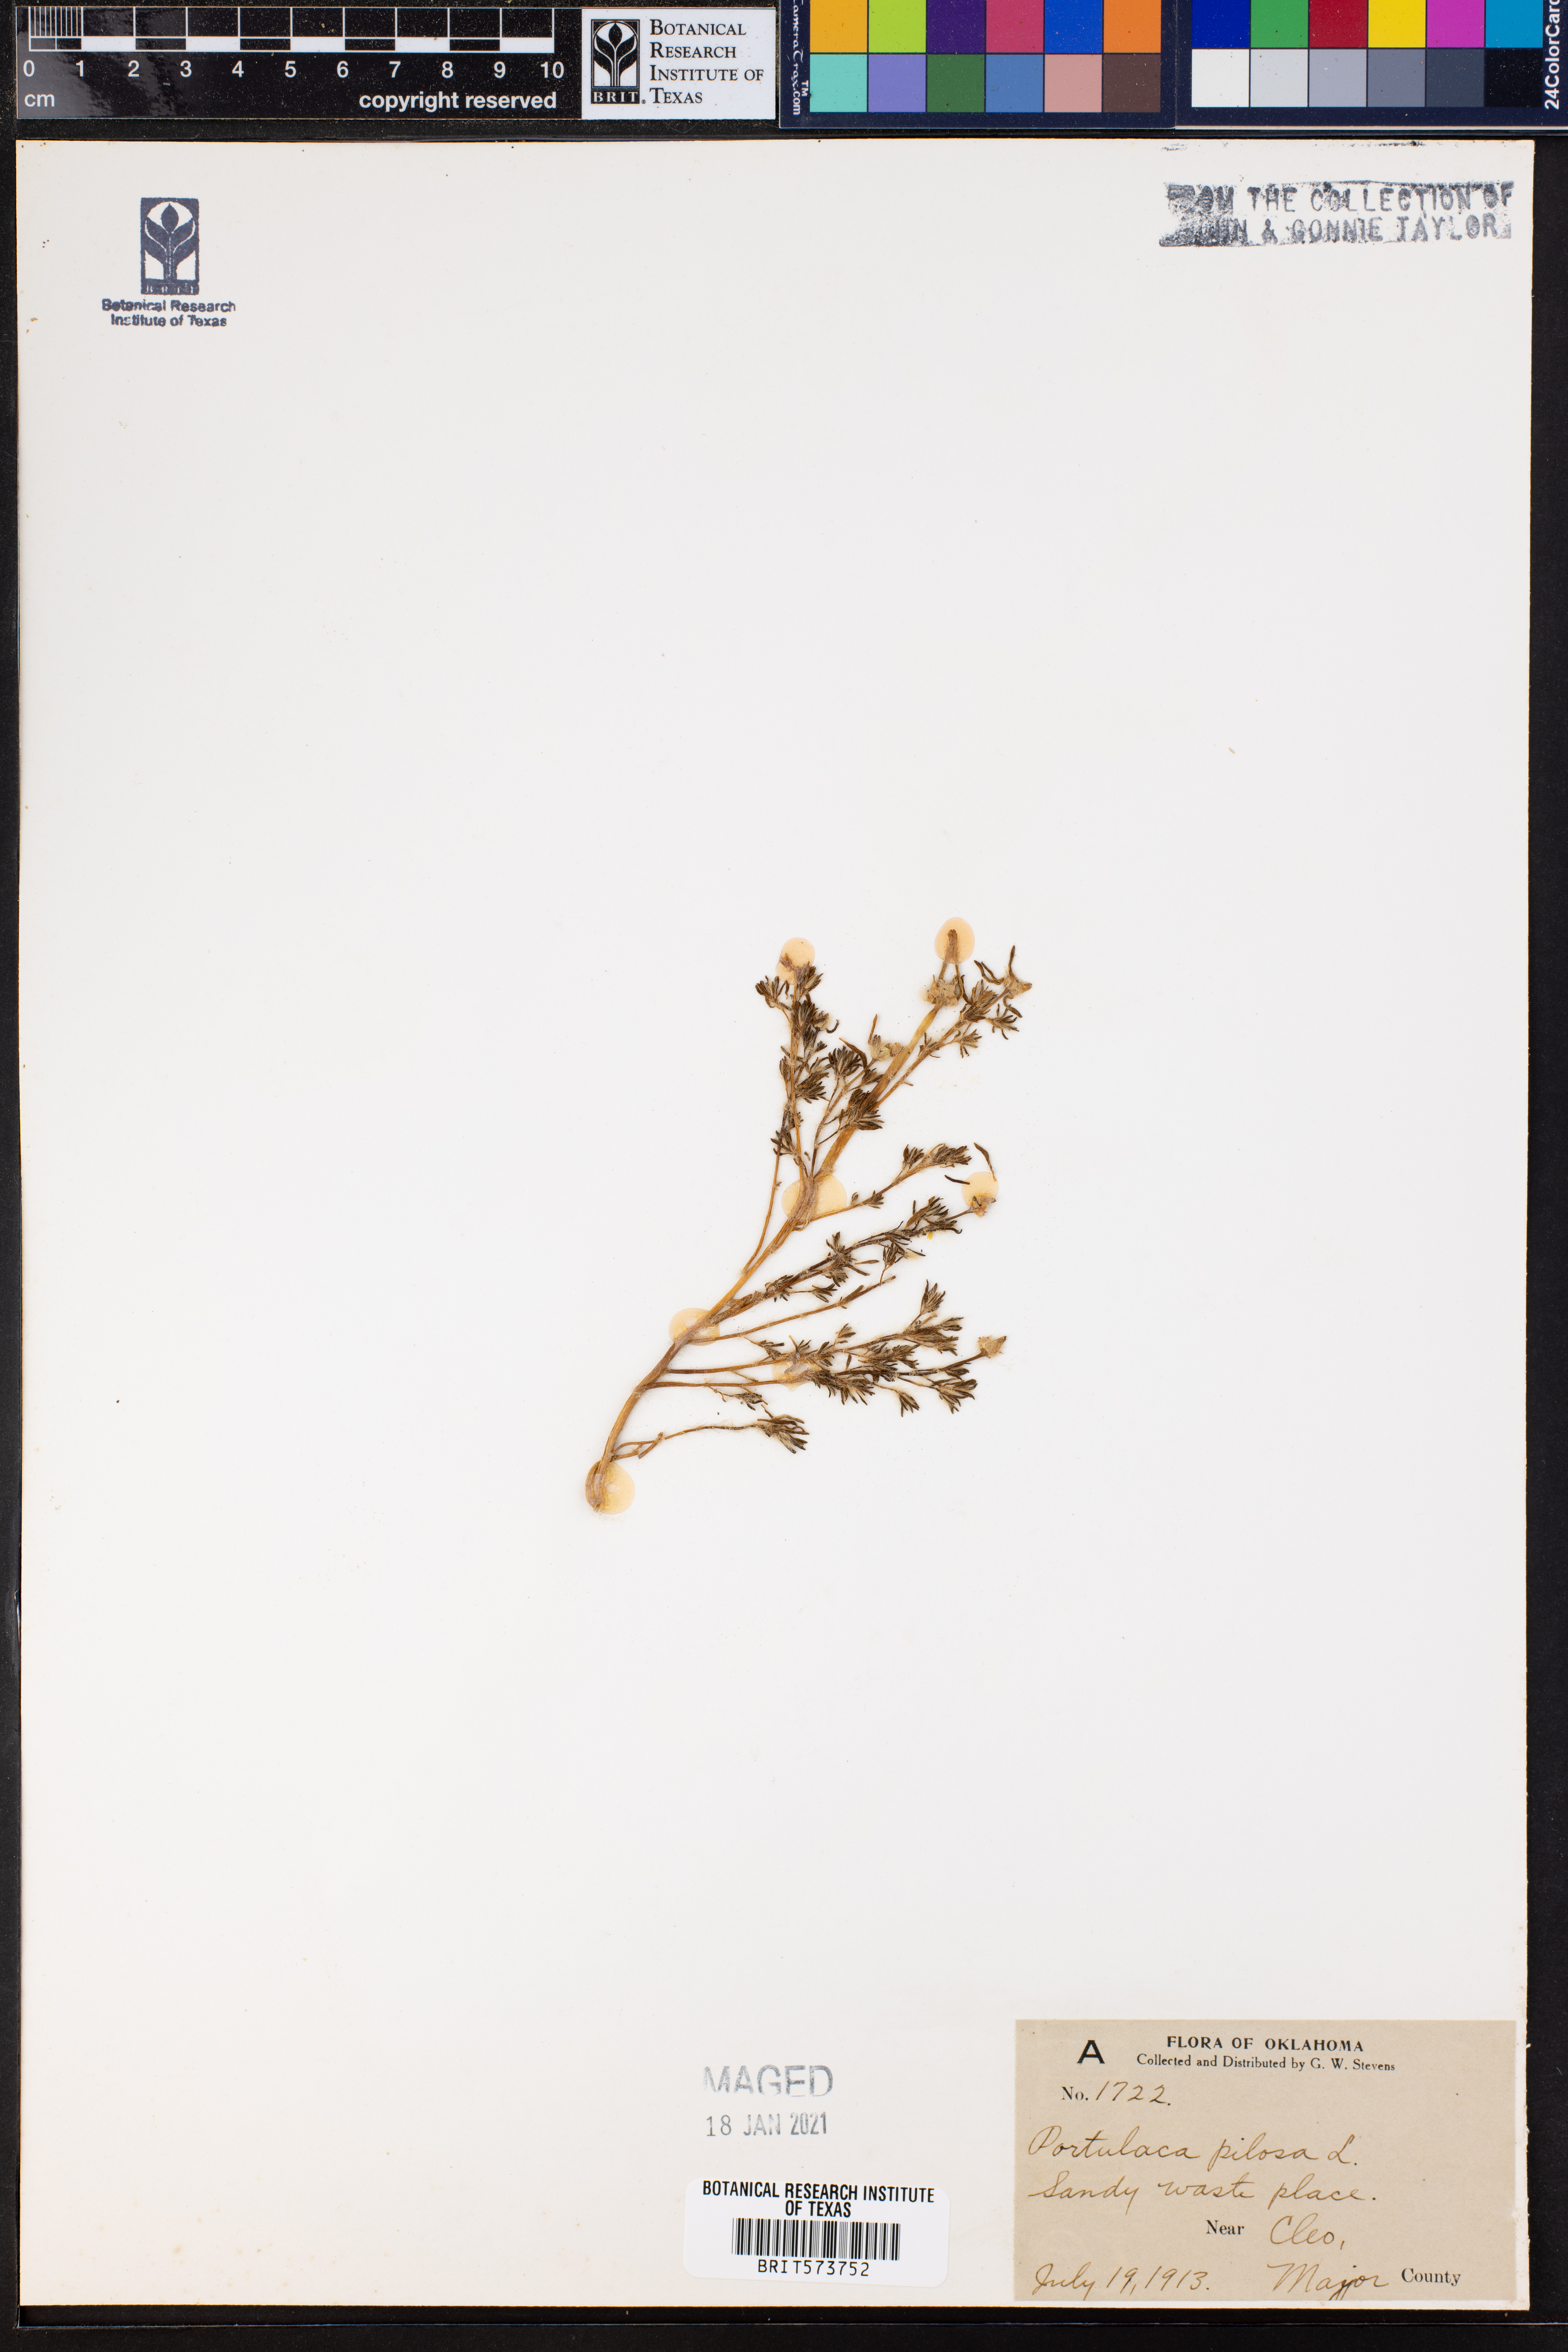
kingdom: Plantae
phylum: Tracheophyta
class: Magnoliopsida
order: Caryophyllales
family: Portulacaceae
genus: Portulaca
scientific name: Portulaca pilosa
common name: Kiss me quick
